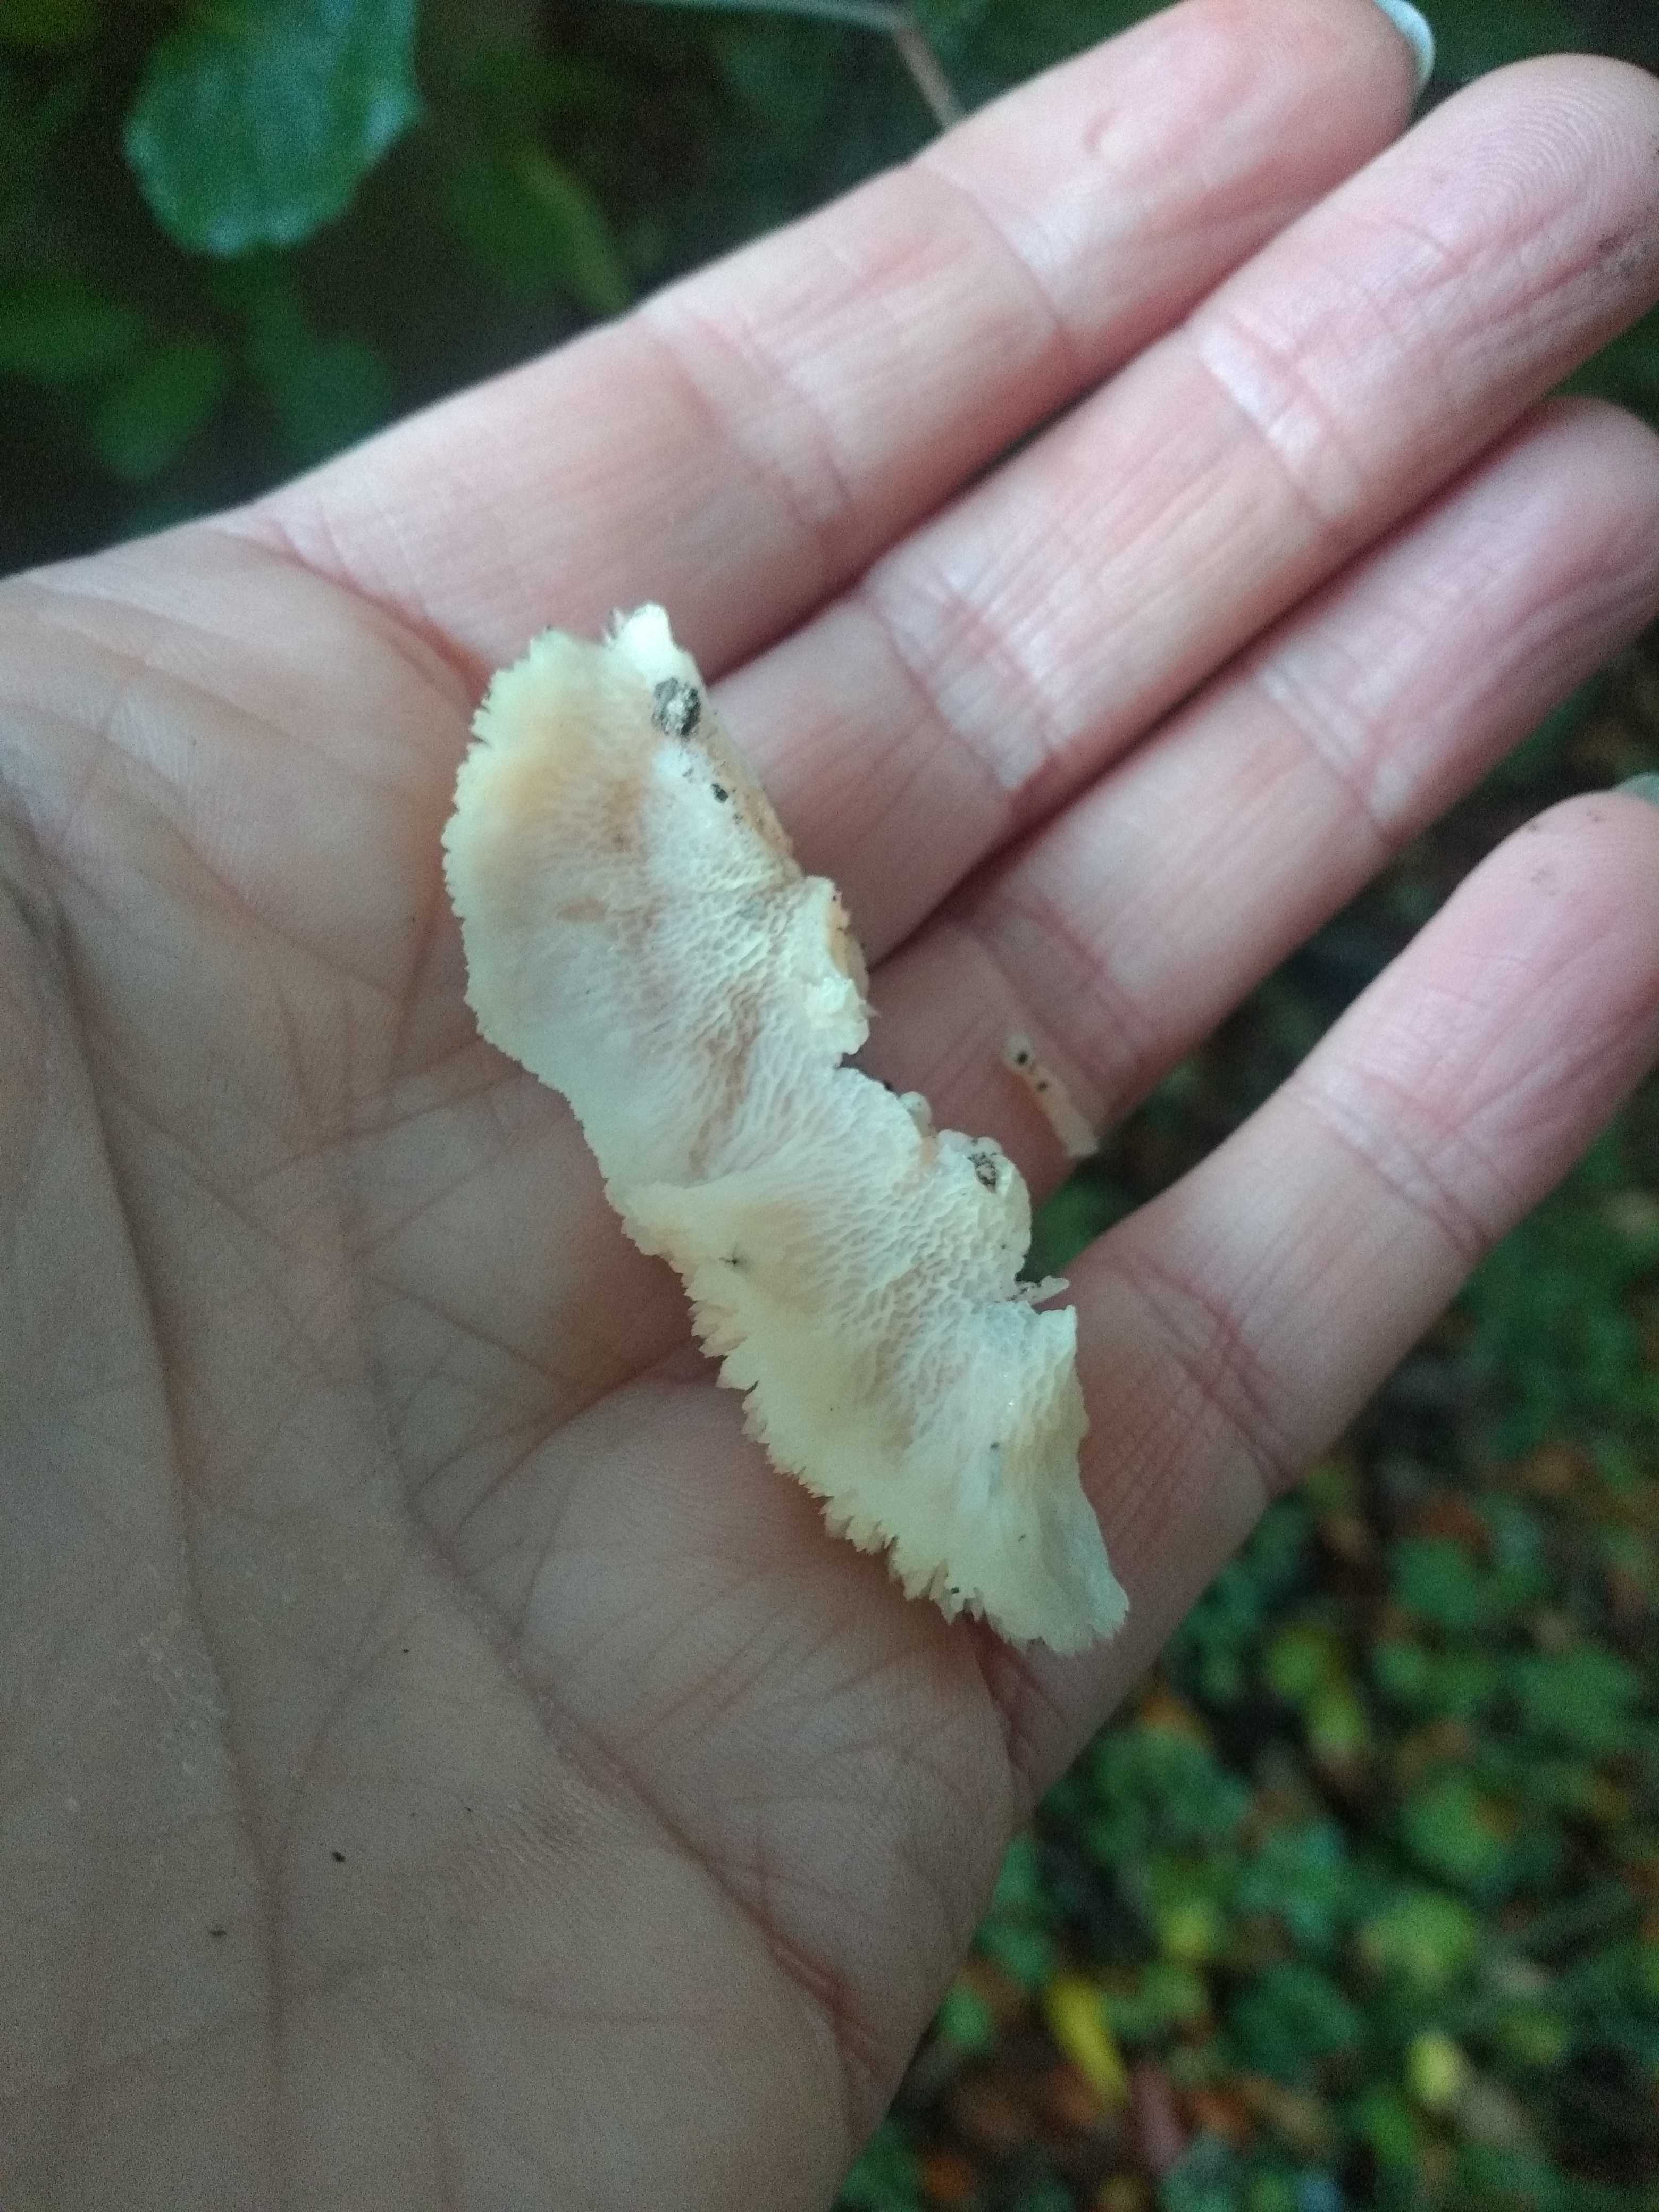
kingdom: Fungi
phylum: Basidiomycota
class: Agaricomycetes
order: Polyporales
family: Meruliaceae
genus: Phlebia
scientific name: Phlebia tremellosa
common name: bævrende åresvamp
